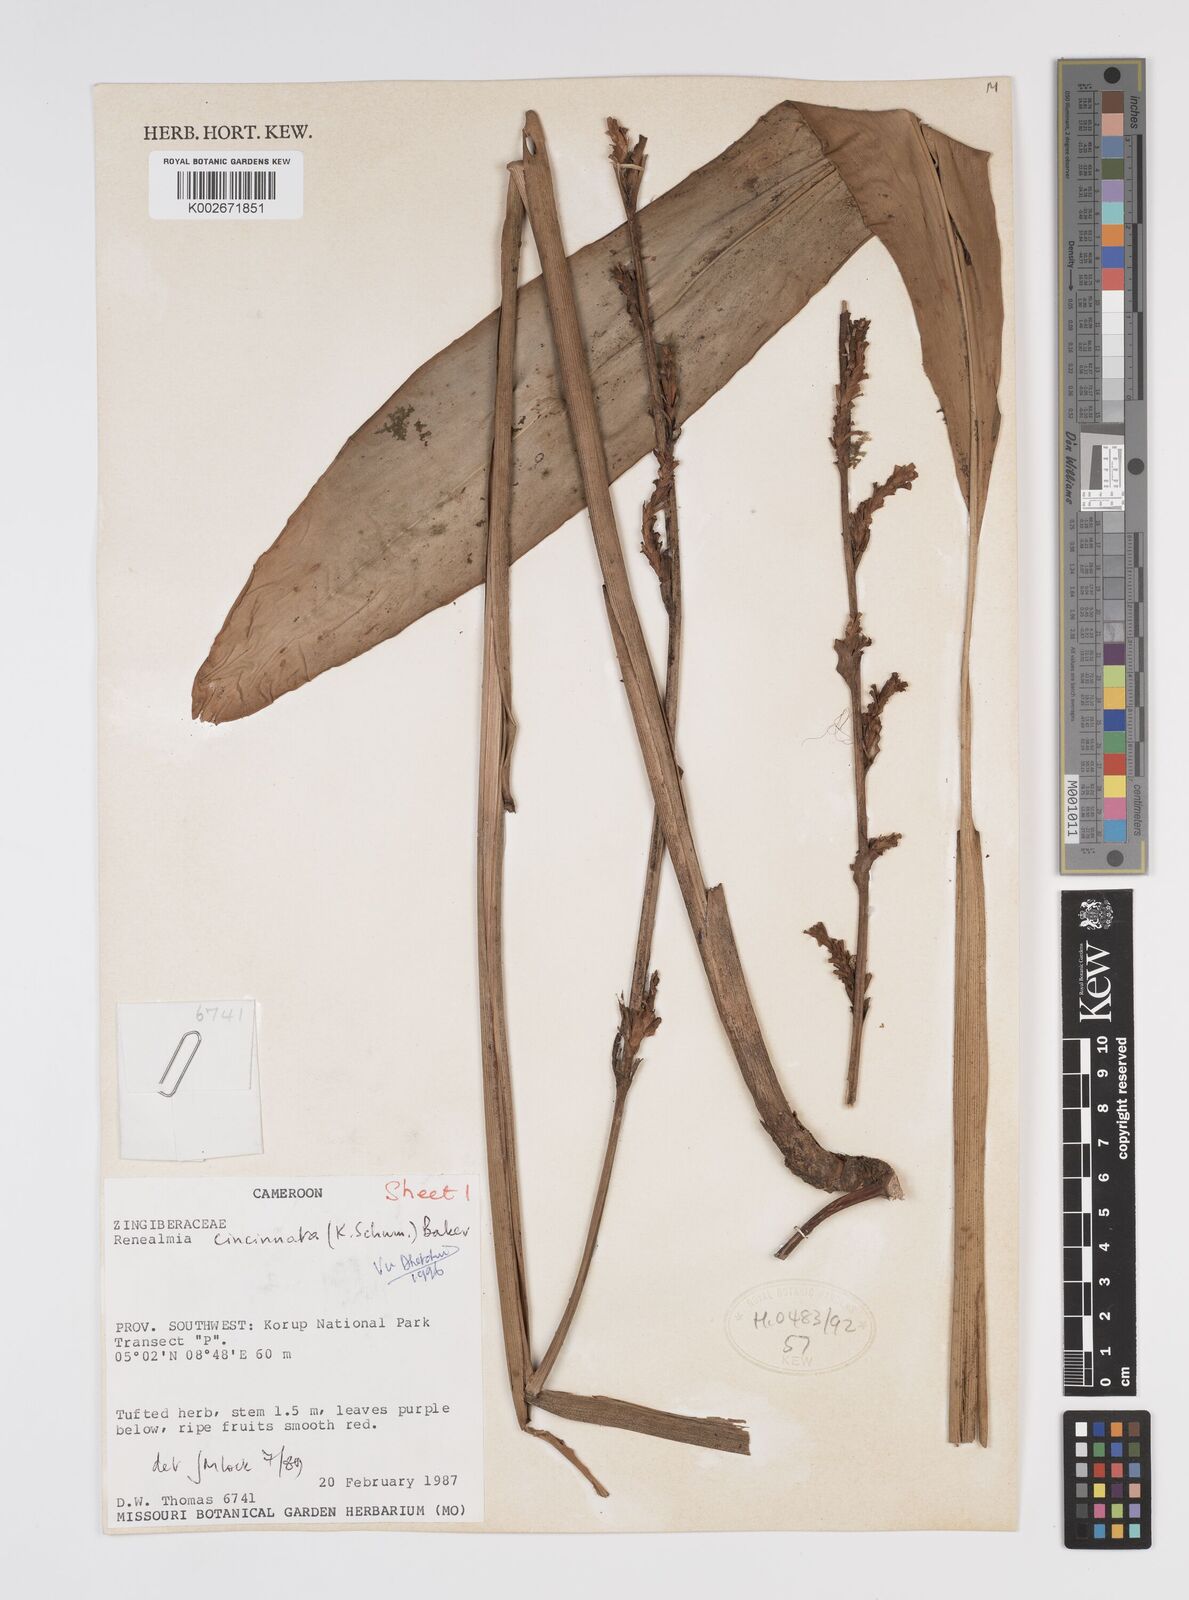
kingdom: Plantae
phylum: Tracheophyta
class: Liliopsida
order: Zingiberales
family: Zingiberaceae
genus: Renealmia
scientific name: Renealmia cincinnata
